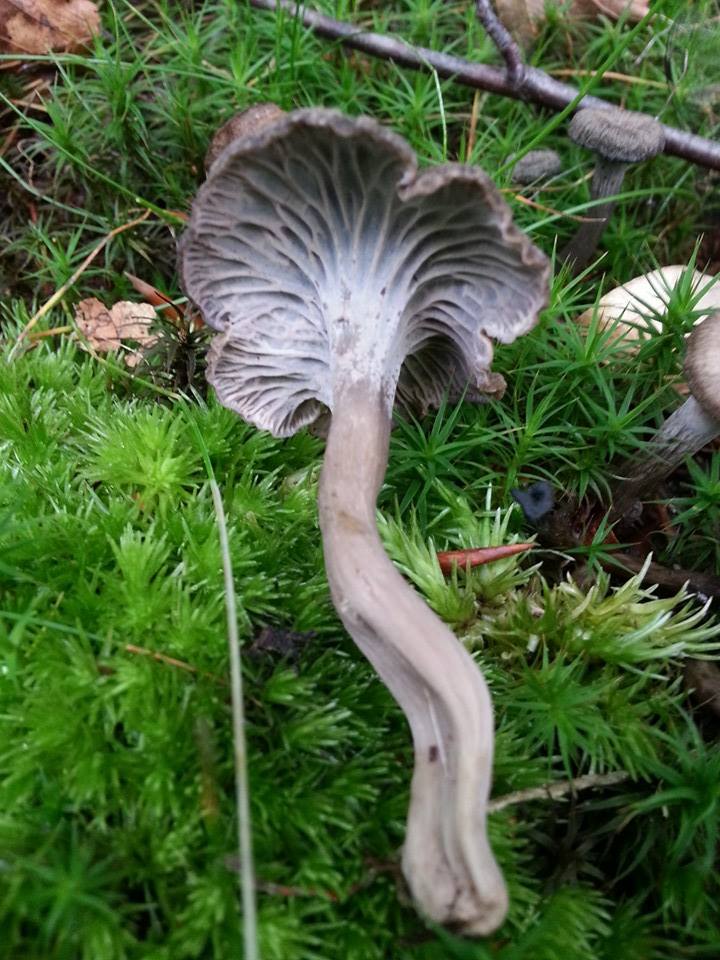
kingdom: Fungi
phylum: Basidiomycota
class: Agaricomycetes
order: Cantharellales
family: Hydnaceae
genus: Cantharellus
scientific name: Cantharellus cinereus
